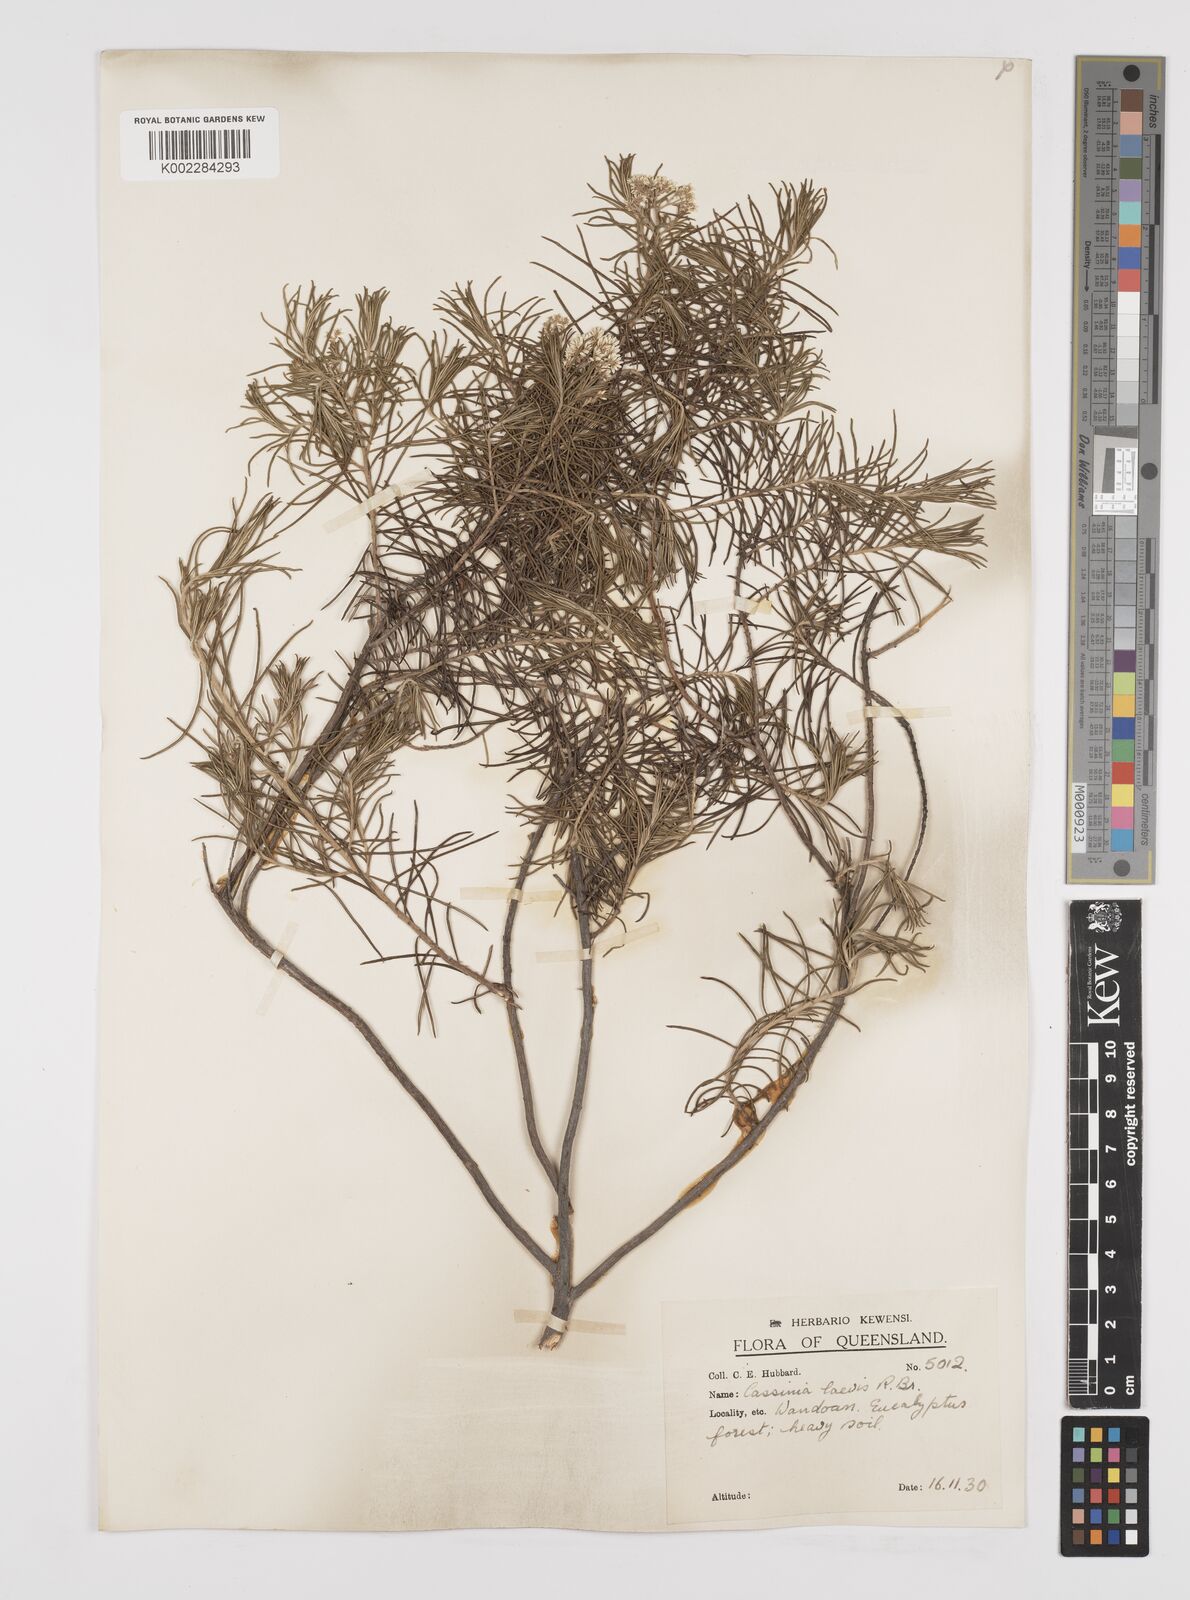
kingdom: Plantae
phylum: Tracheophyta
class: Magnoliopsida
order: Asterales
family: Asteraceae
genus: Cassinia
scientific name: Cassinia laevis
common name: Coughbush
